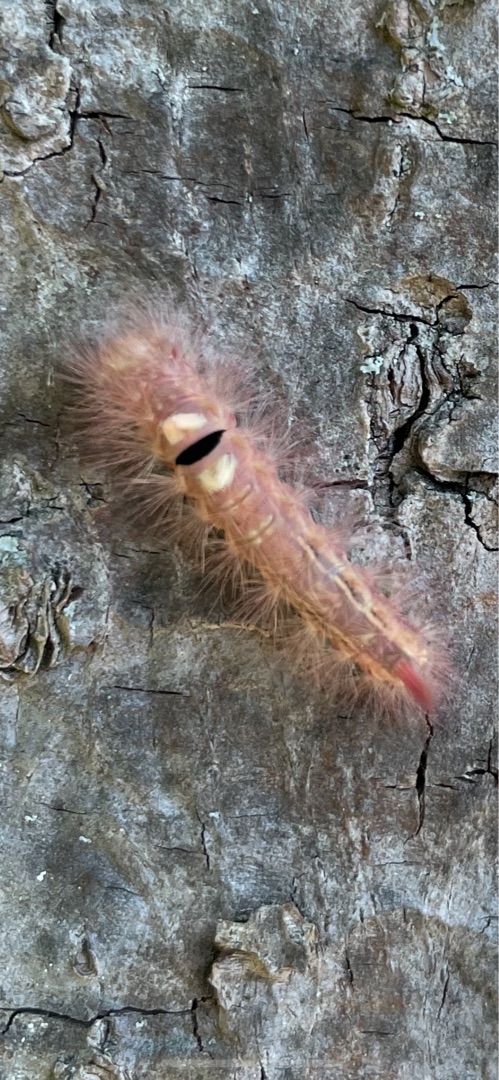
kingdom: Animalia
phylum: Arthropoda
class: Insecta
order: Lepidoptera
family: Erebidae
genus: Calliteara
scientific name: Calliteara pudibunda
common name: Bøgenonne
